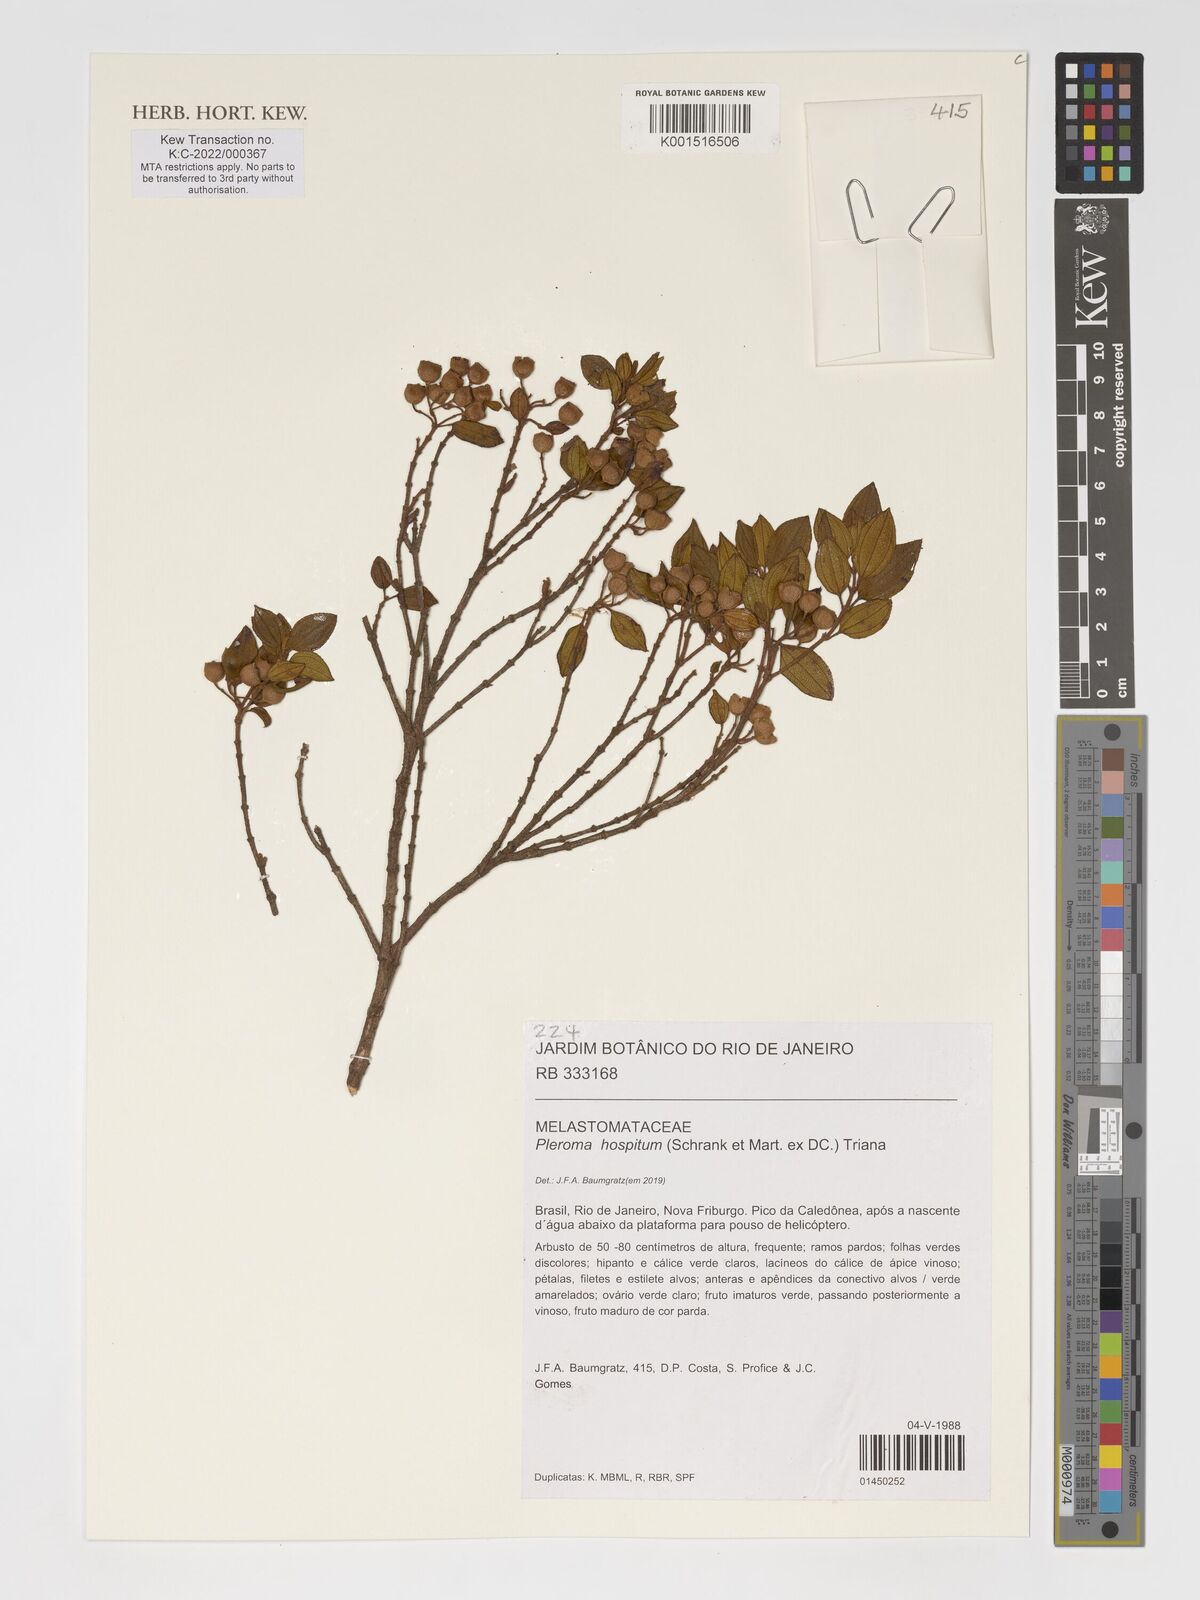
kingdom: Plantae
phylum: Tracheophyta
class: Magnoliopsida
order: Myrtales
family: Melastomataceae
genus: Pleroma
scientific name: Pleroma hospitum
